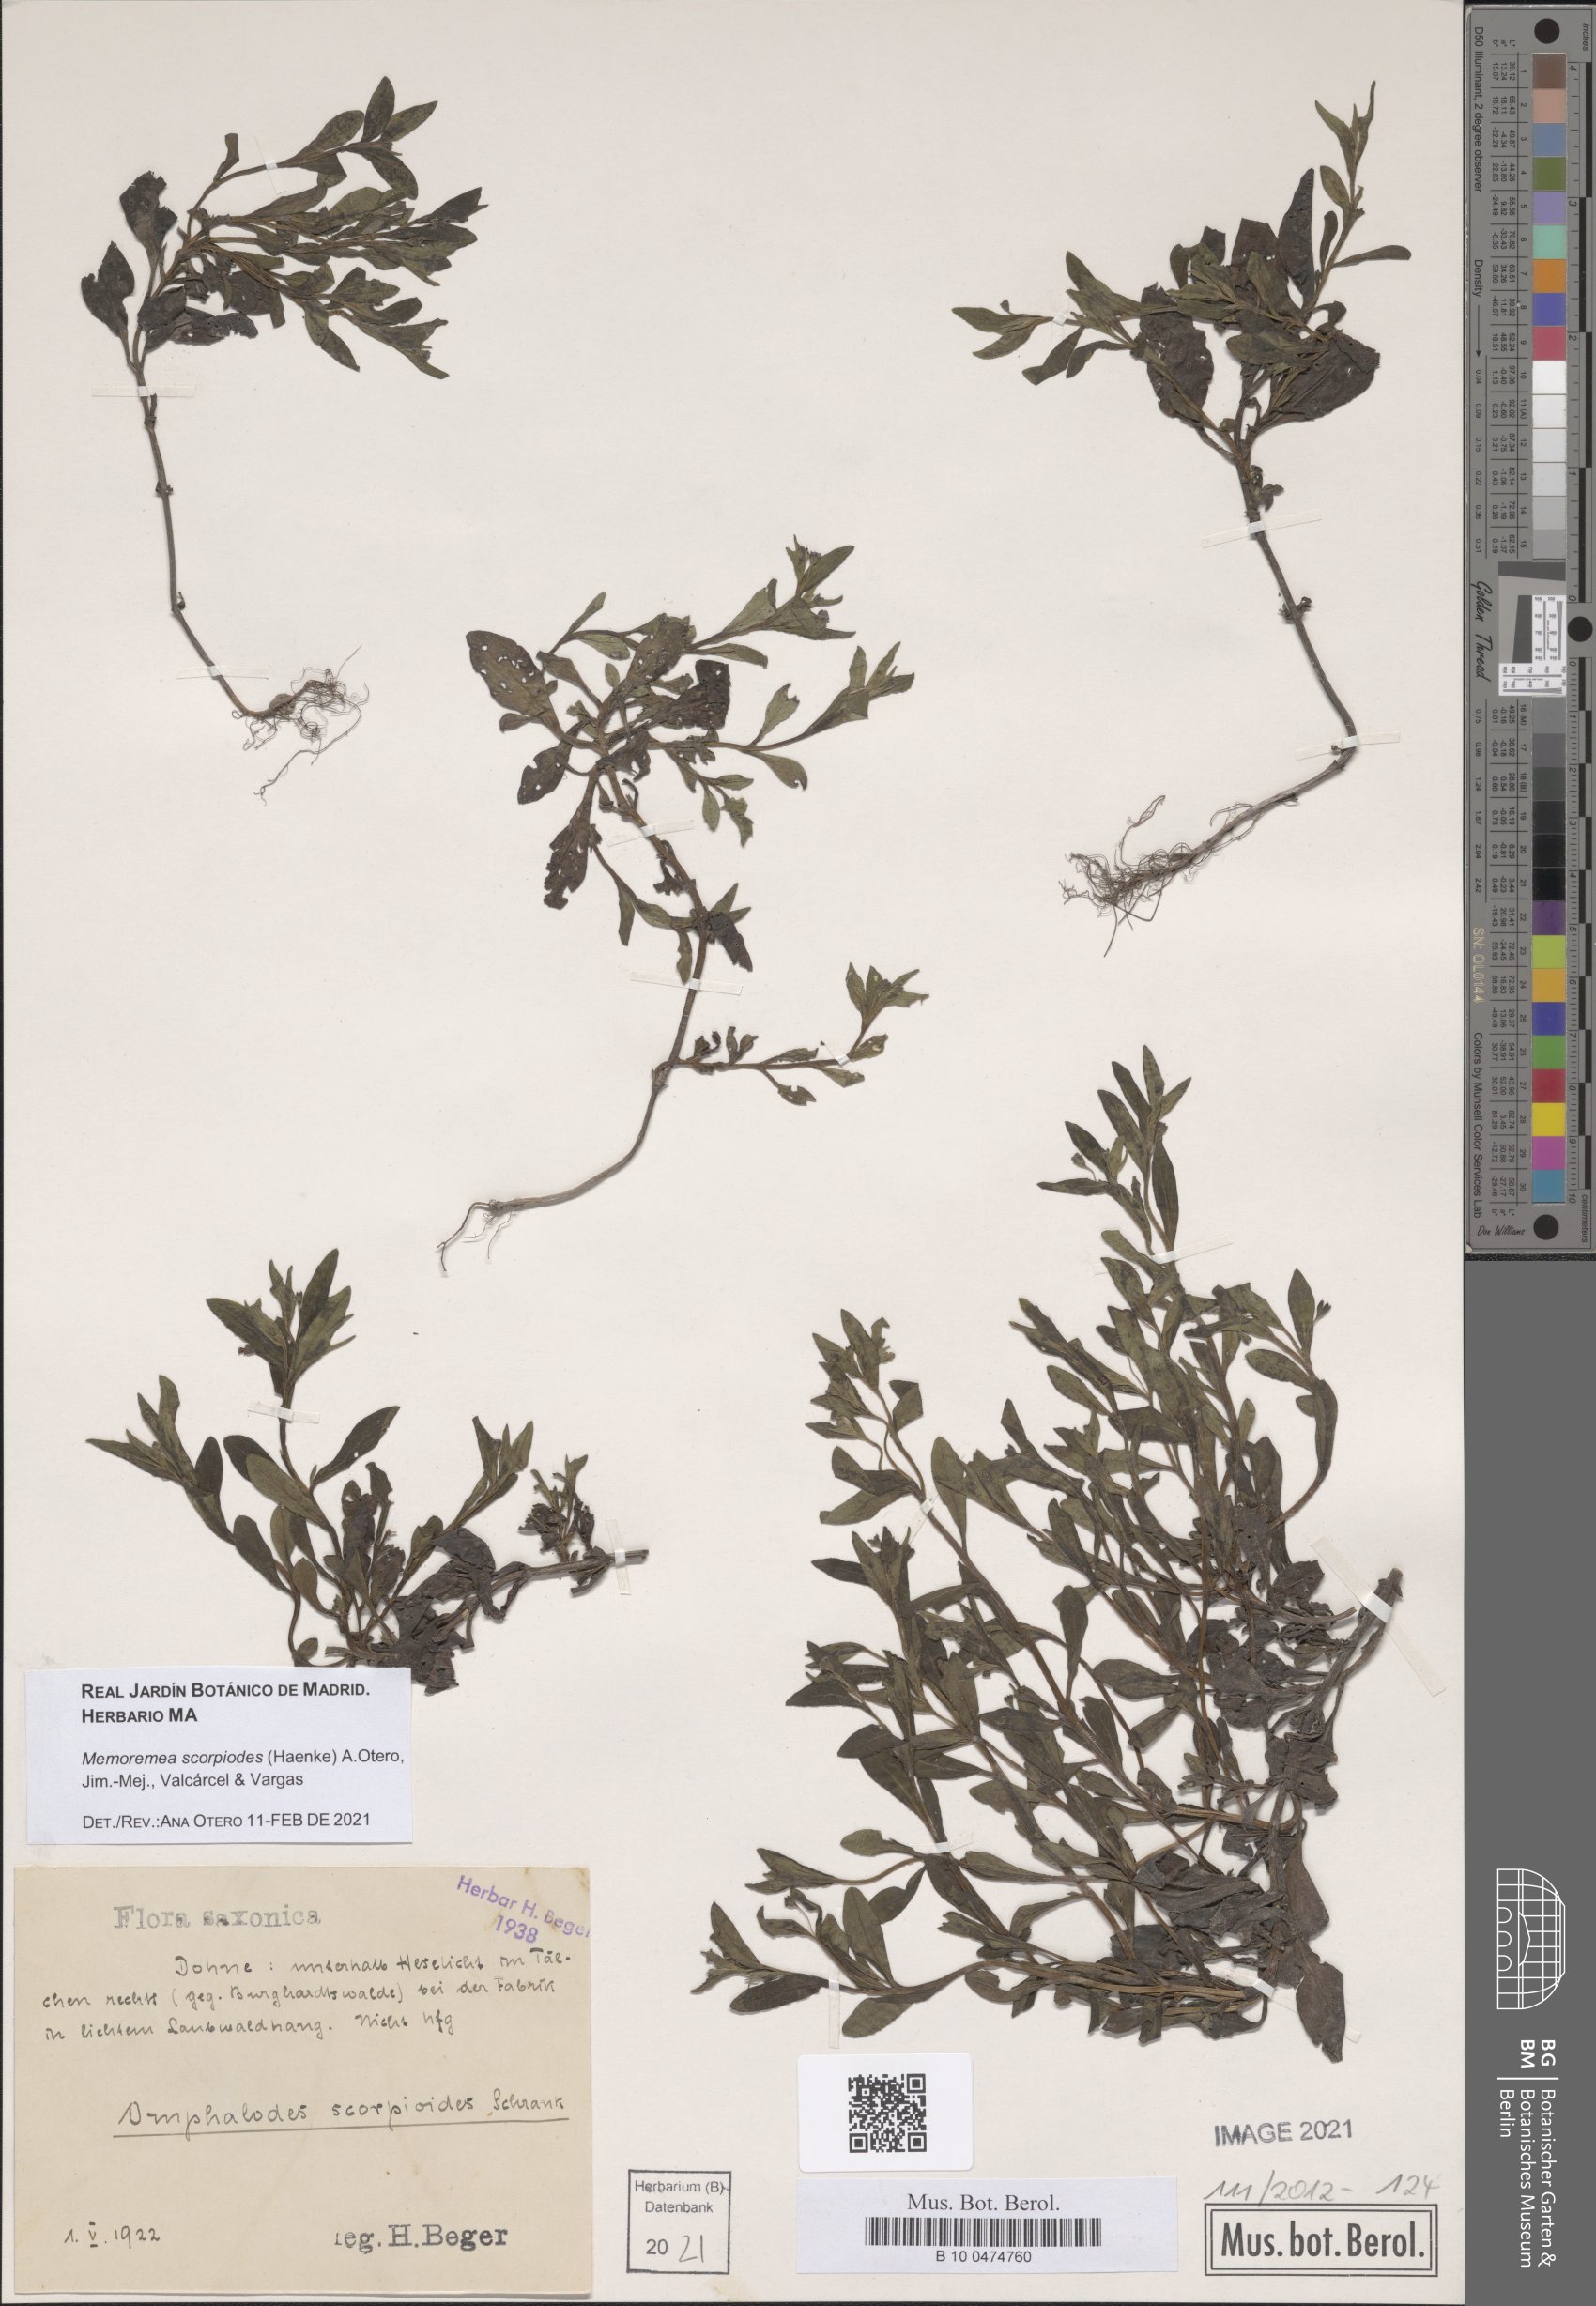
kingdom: Plantae
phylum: Tracheophyta
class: Magnoliopsida
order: Boraginales
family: Boraginaceae
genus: Memoremea
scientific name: Memoremea scorpioides
